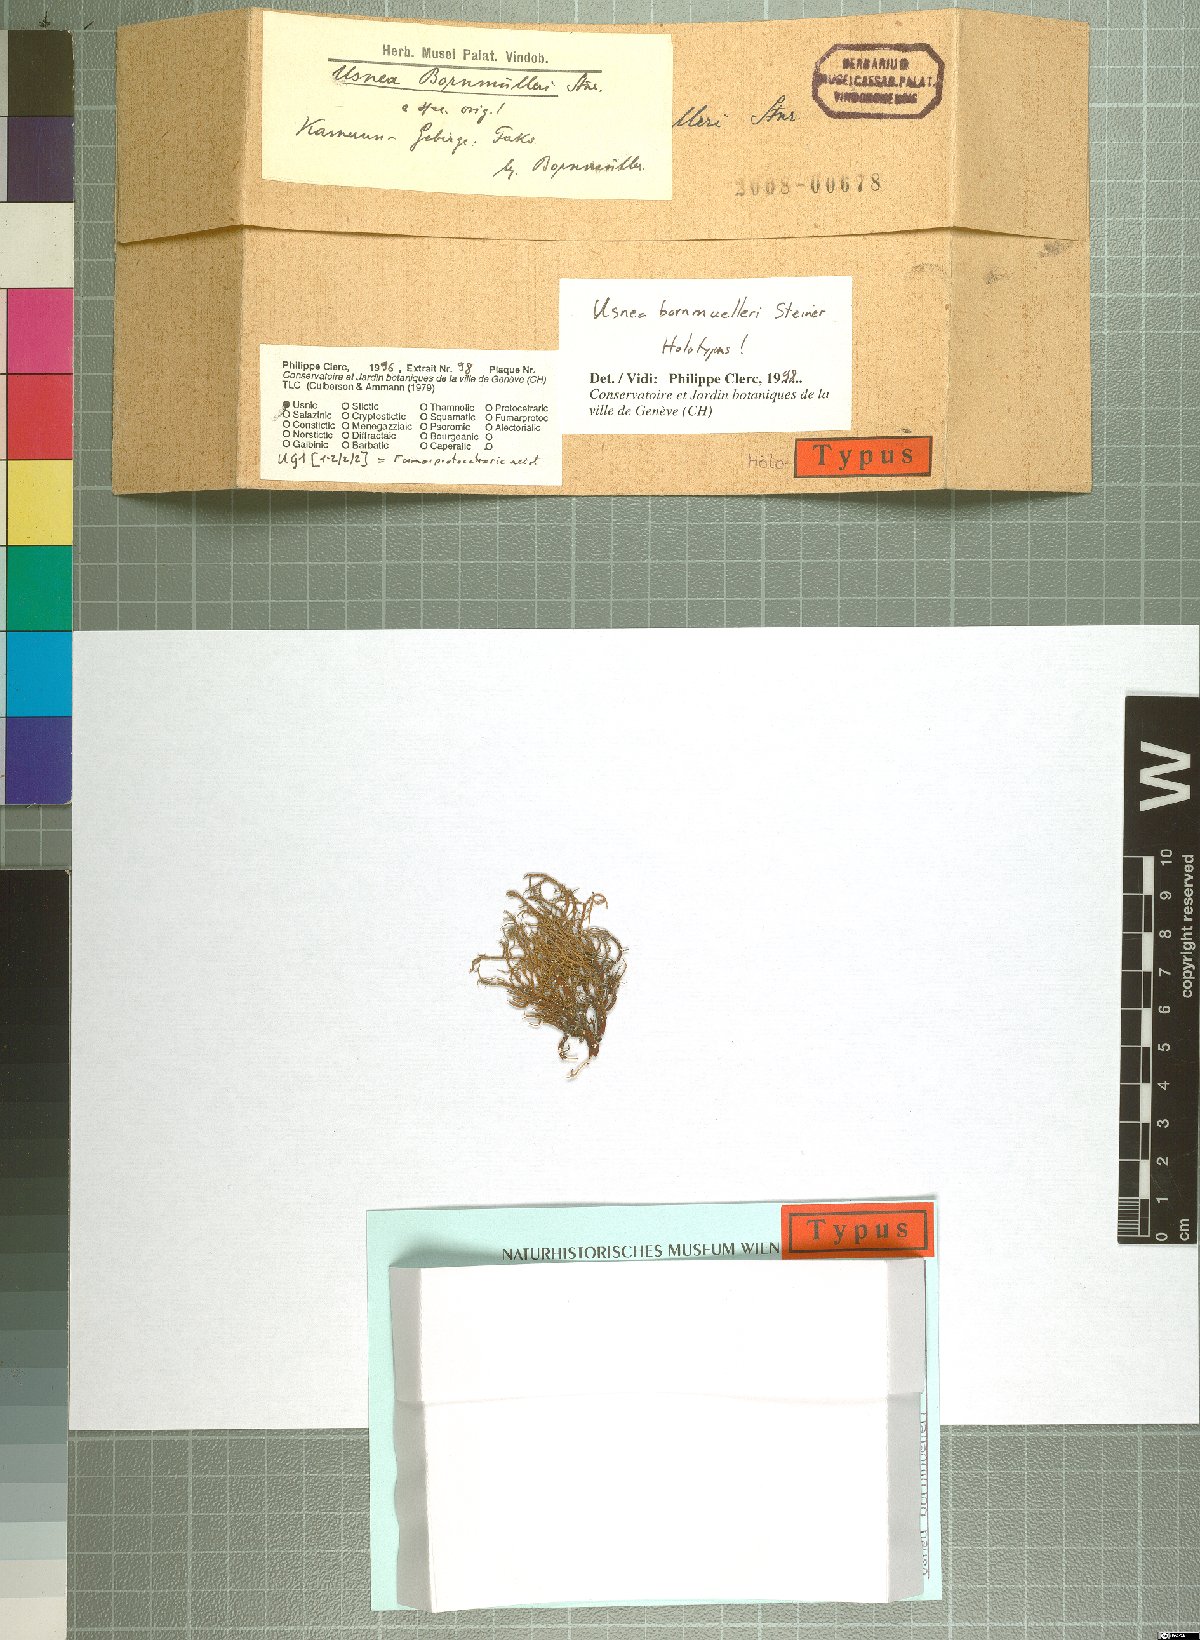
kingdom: Fungi
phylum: Ascomycota
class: Lecanoromycetes
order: Lecanorales
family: Parmeliaceae
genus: Usnea
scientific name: Usnea bornmuelleri
